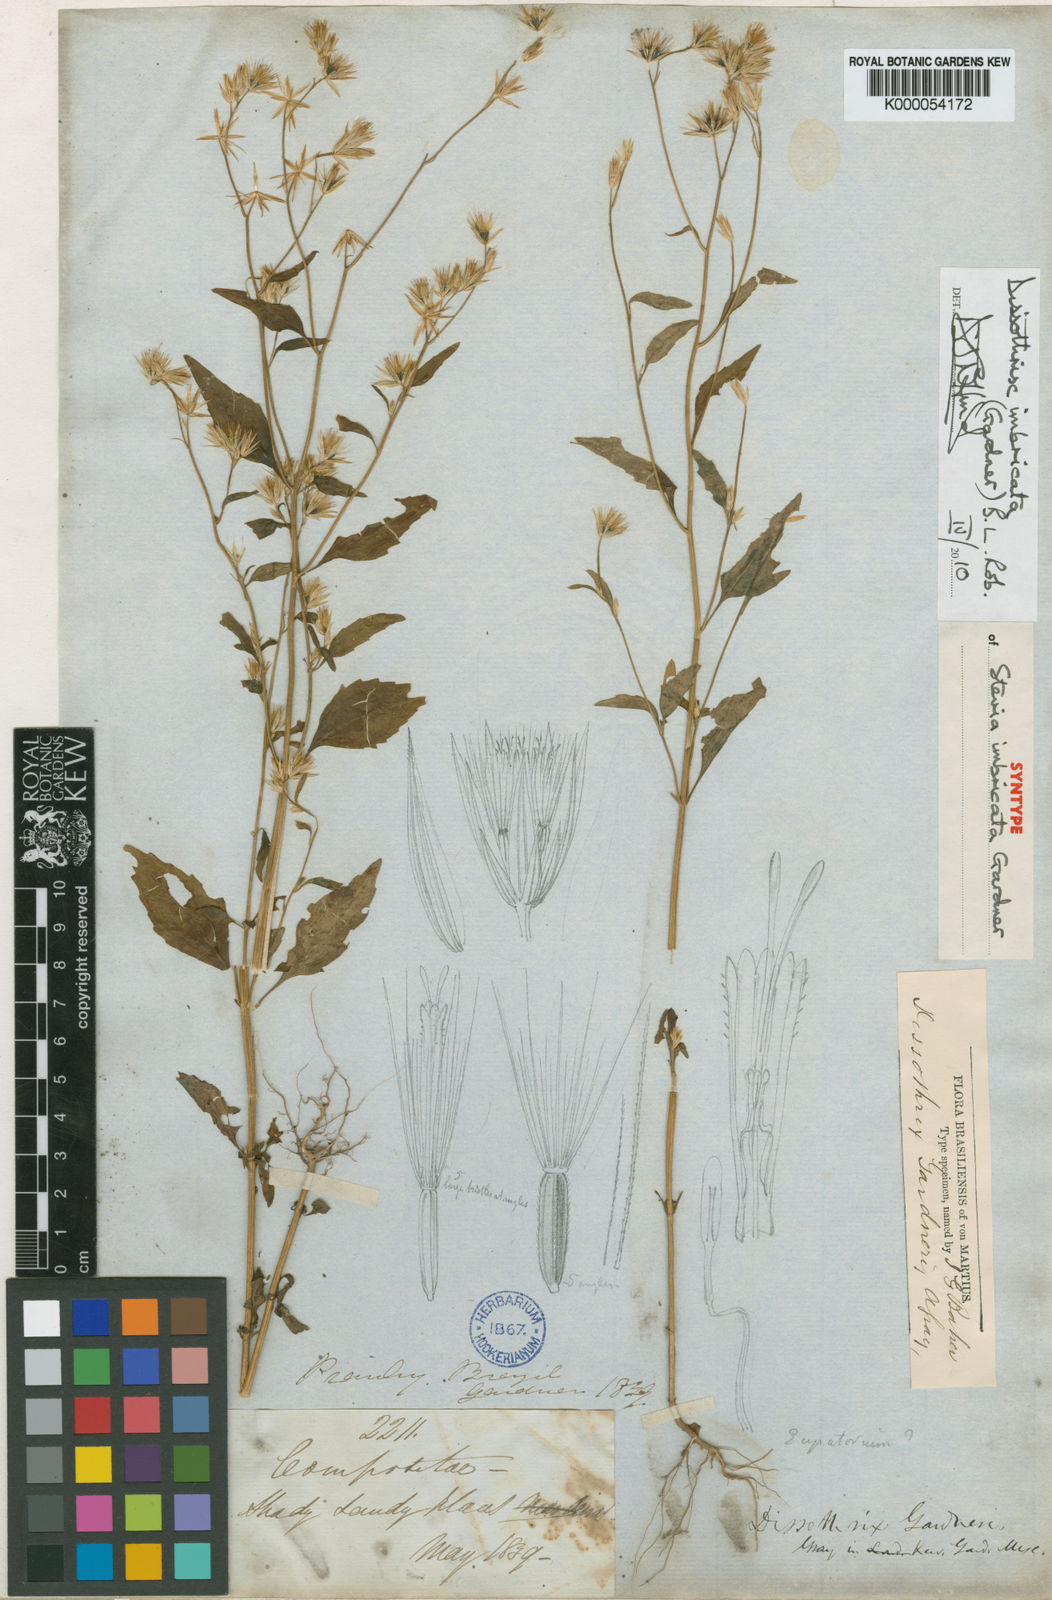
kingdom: Plantae
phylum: Tracheophyta
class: Magnoliopsida
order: Asterales
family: Asteraceae
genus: Dissothrix
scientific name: Dissothrix imbricata
